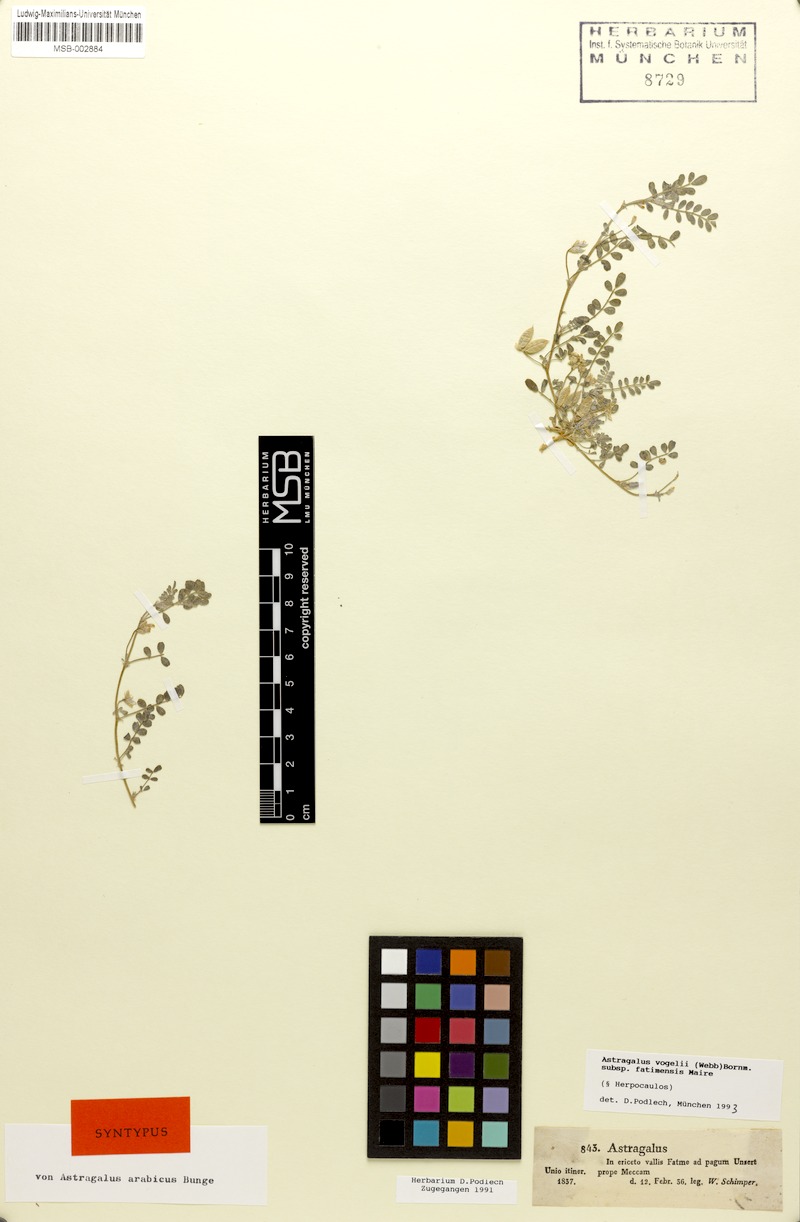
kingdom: Plantae
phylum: Tracheophyta
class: Magnoliopsida
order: Fabales
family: Fabaceae
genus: Astragalus
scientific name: Astragalus vogelii
